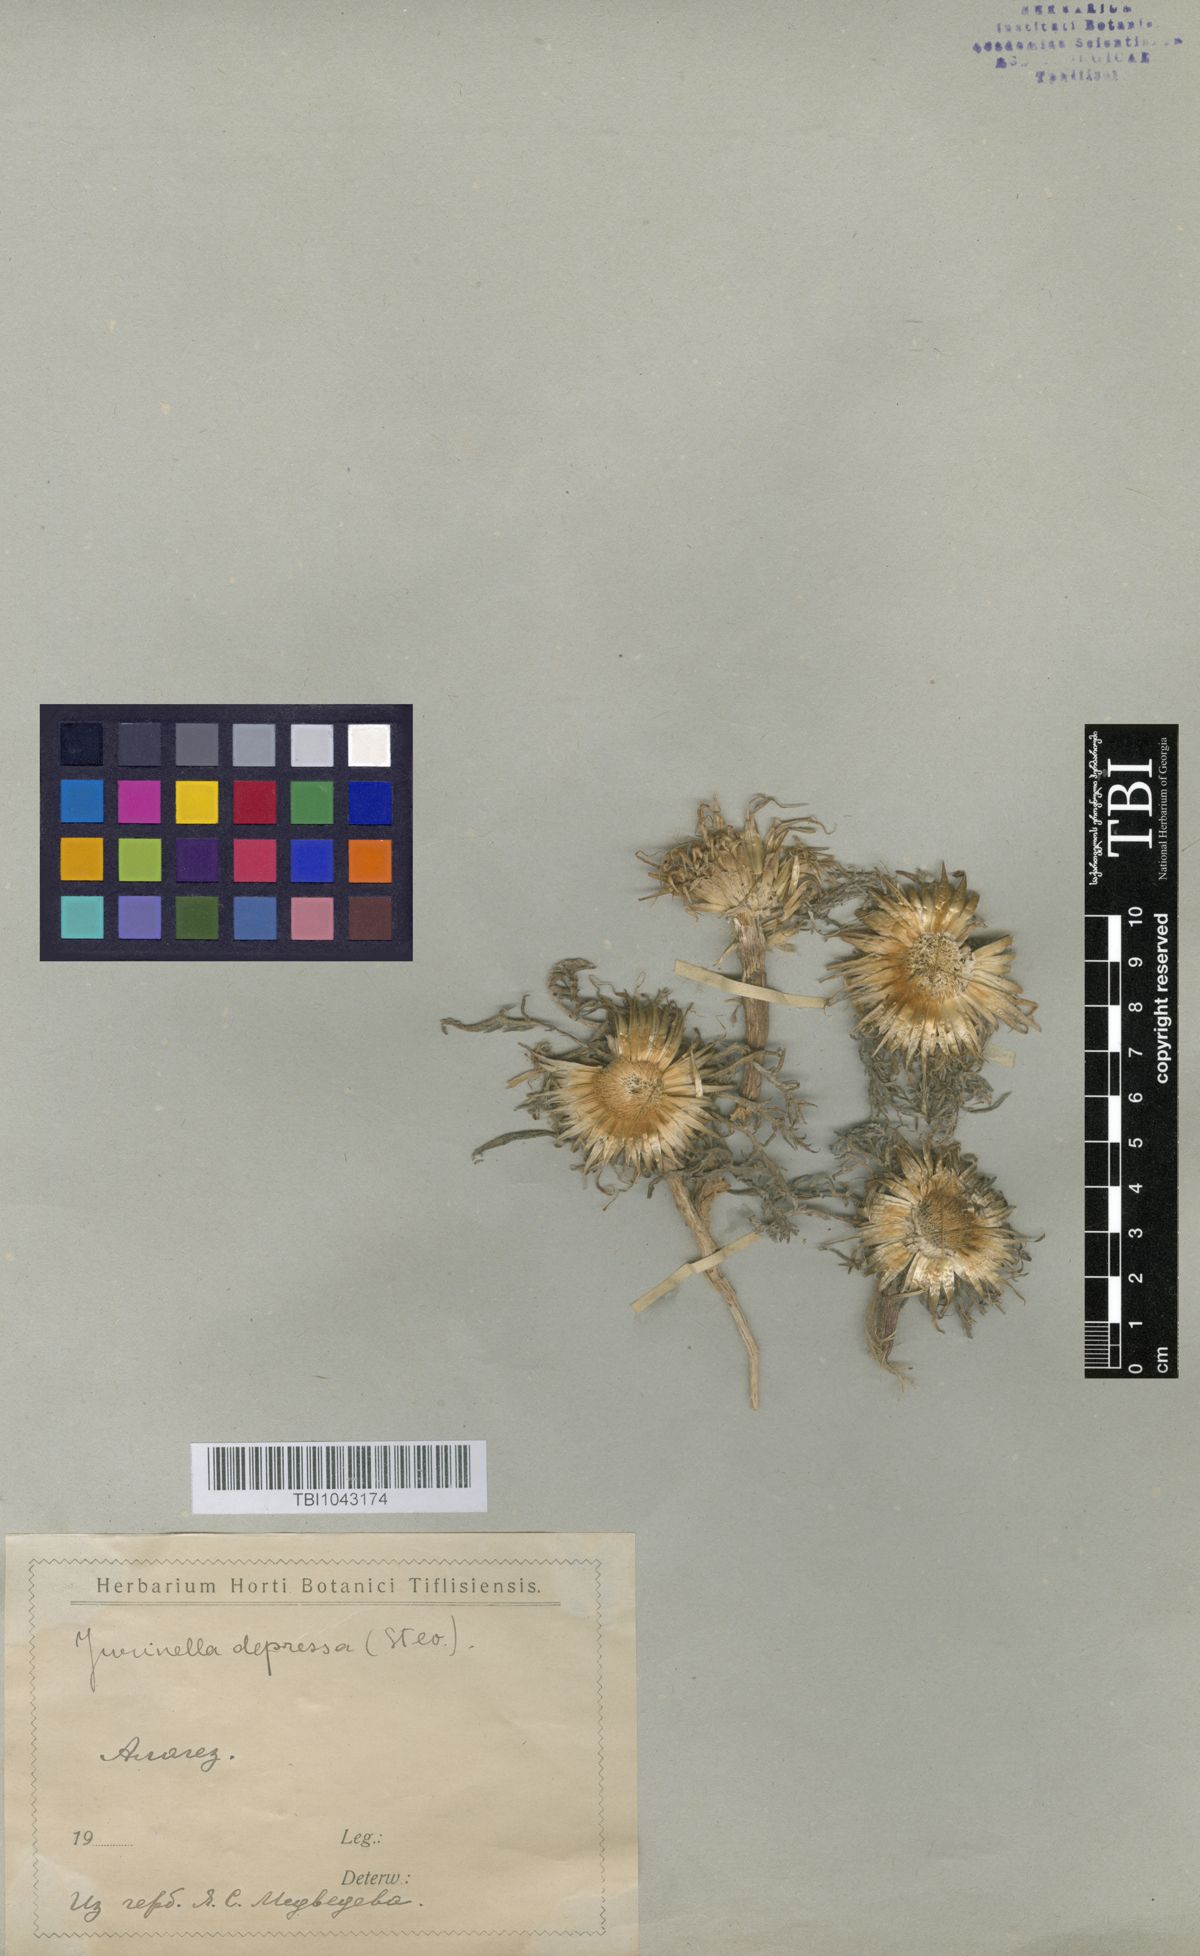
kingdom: Plantae
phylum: Tracheophyta
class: Magnoliopsida
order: Asterales
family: Asteraceae
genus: Jurinea
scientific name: Jurinea moschus
